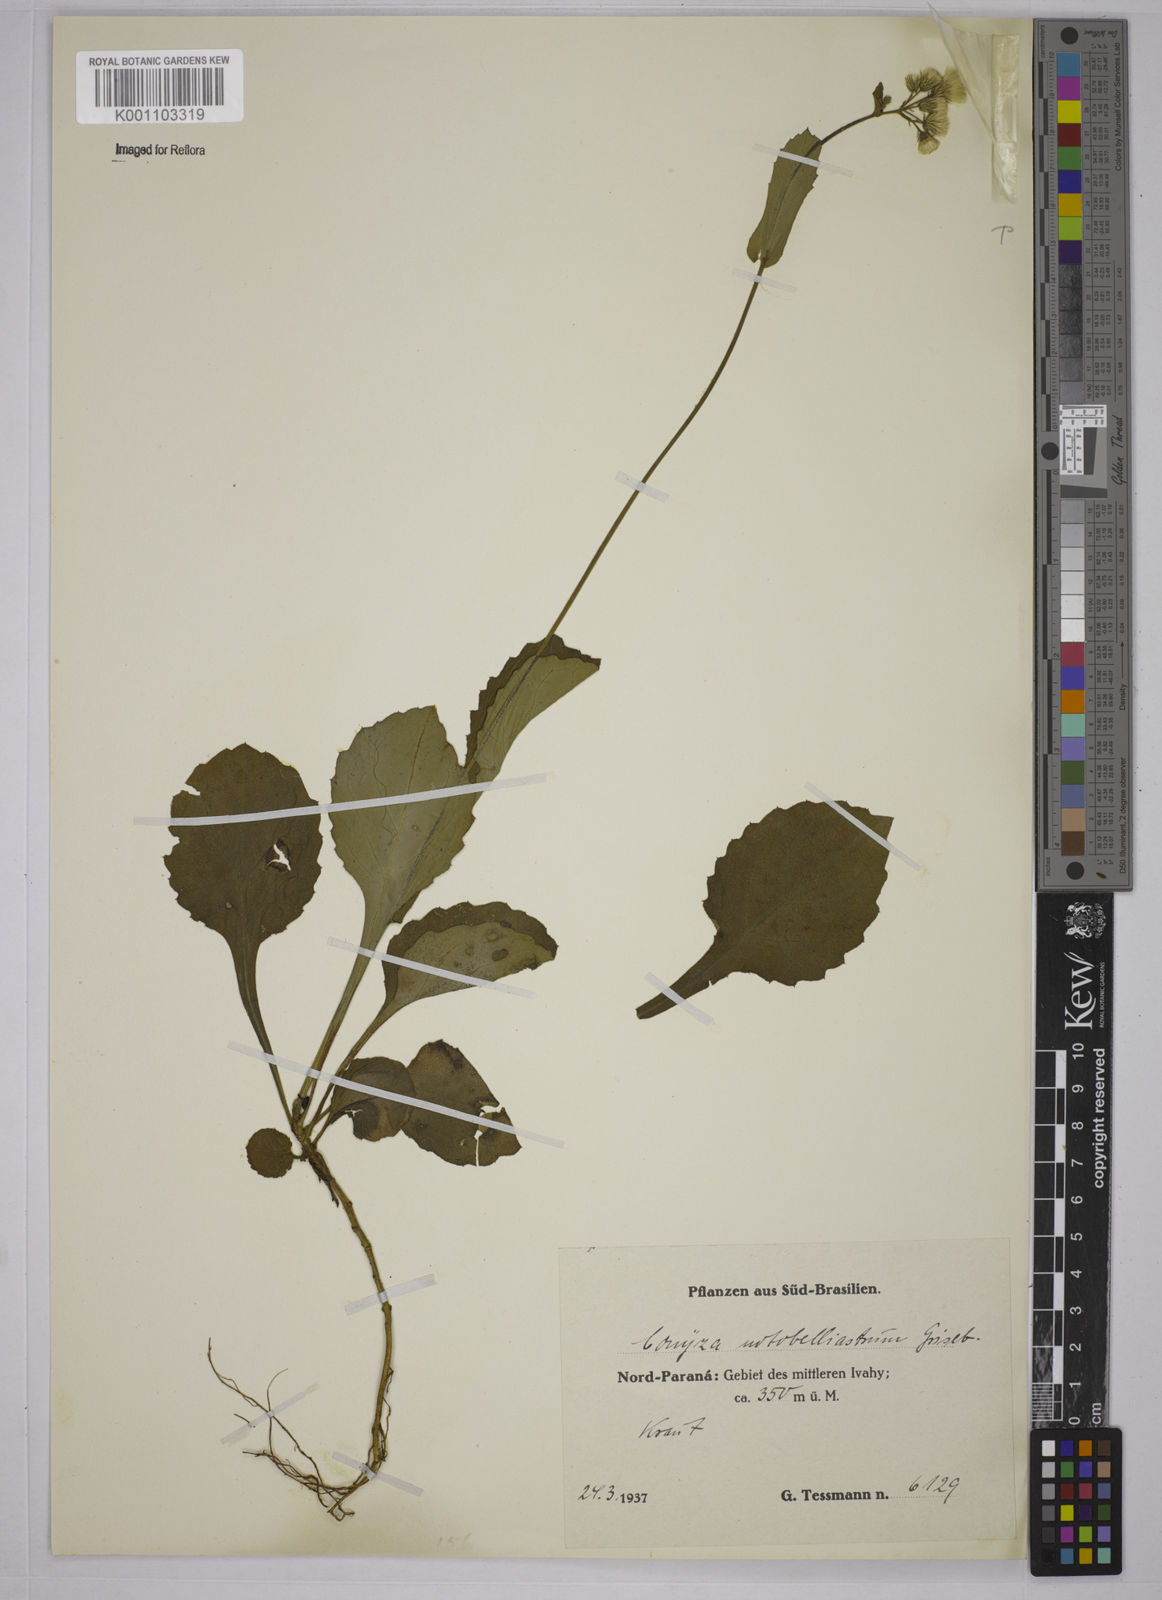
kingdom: Plantae
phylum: Tracheophyta
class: Magnoliopsida
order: Asterales
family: Asteraceae
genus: Exostigma
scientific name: Exostigma notobellidiastrum
